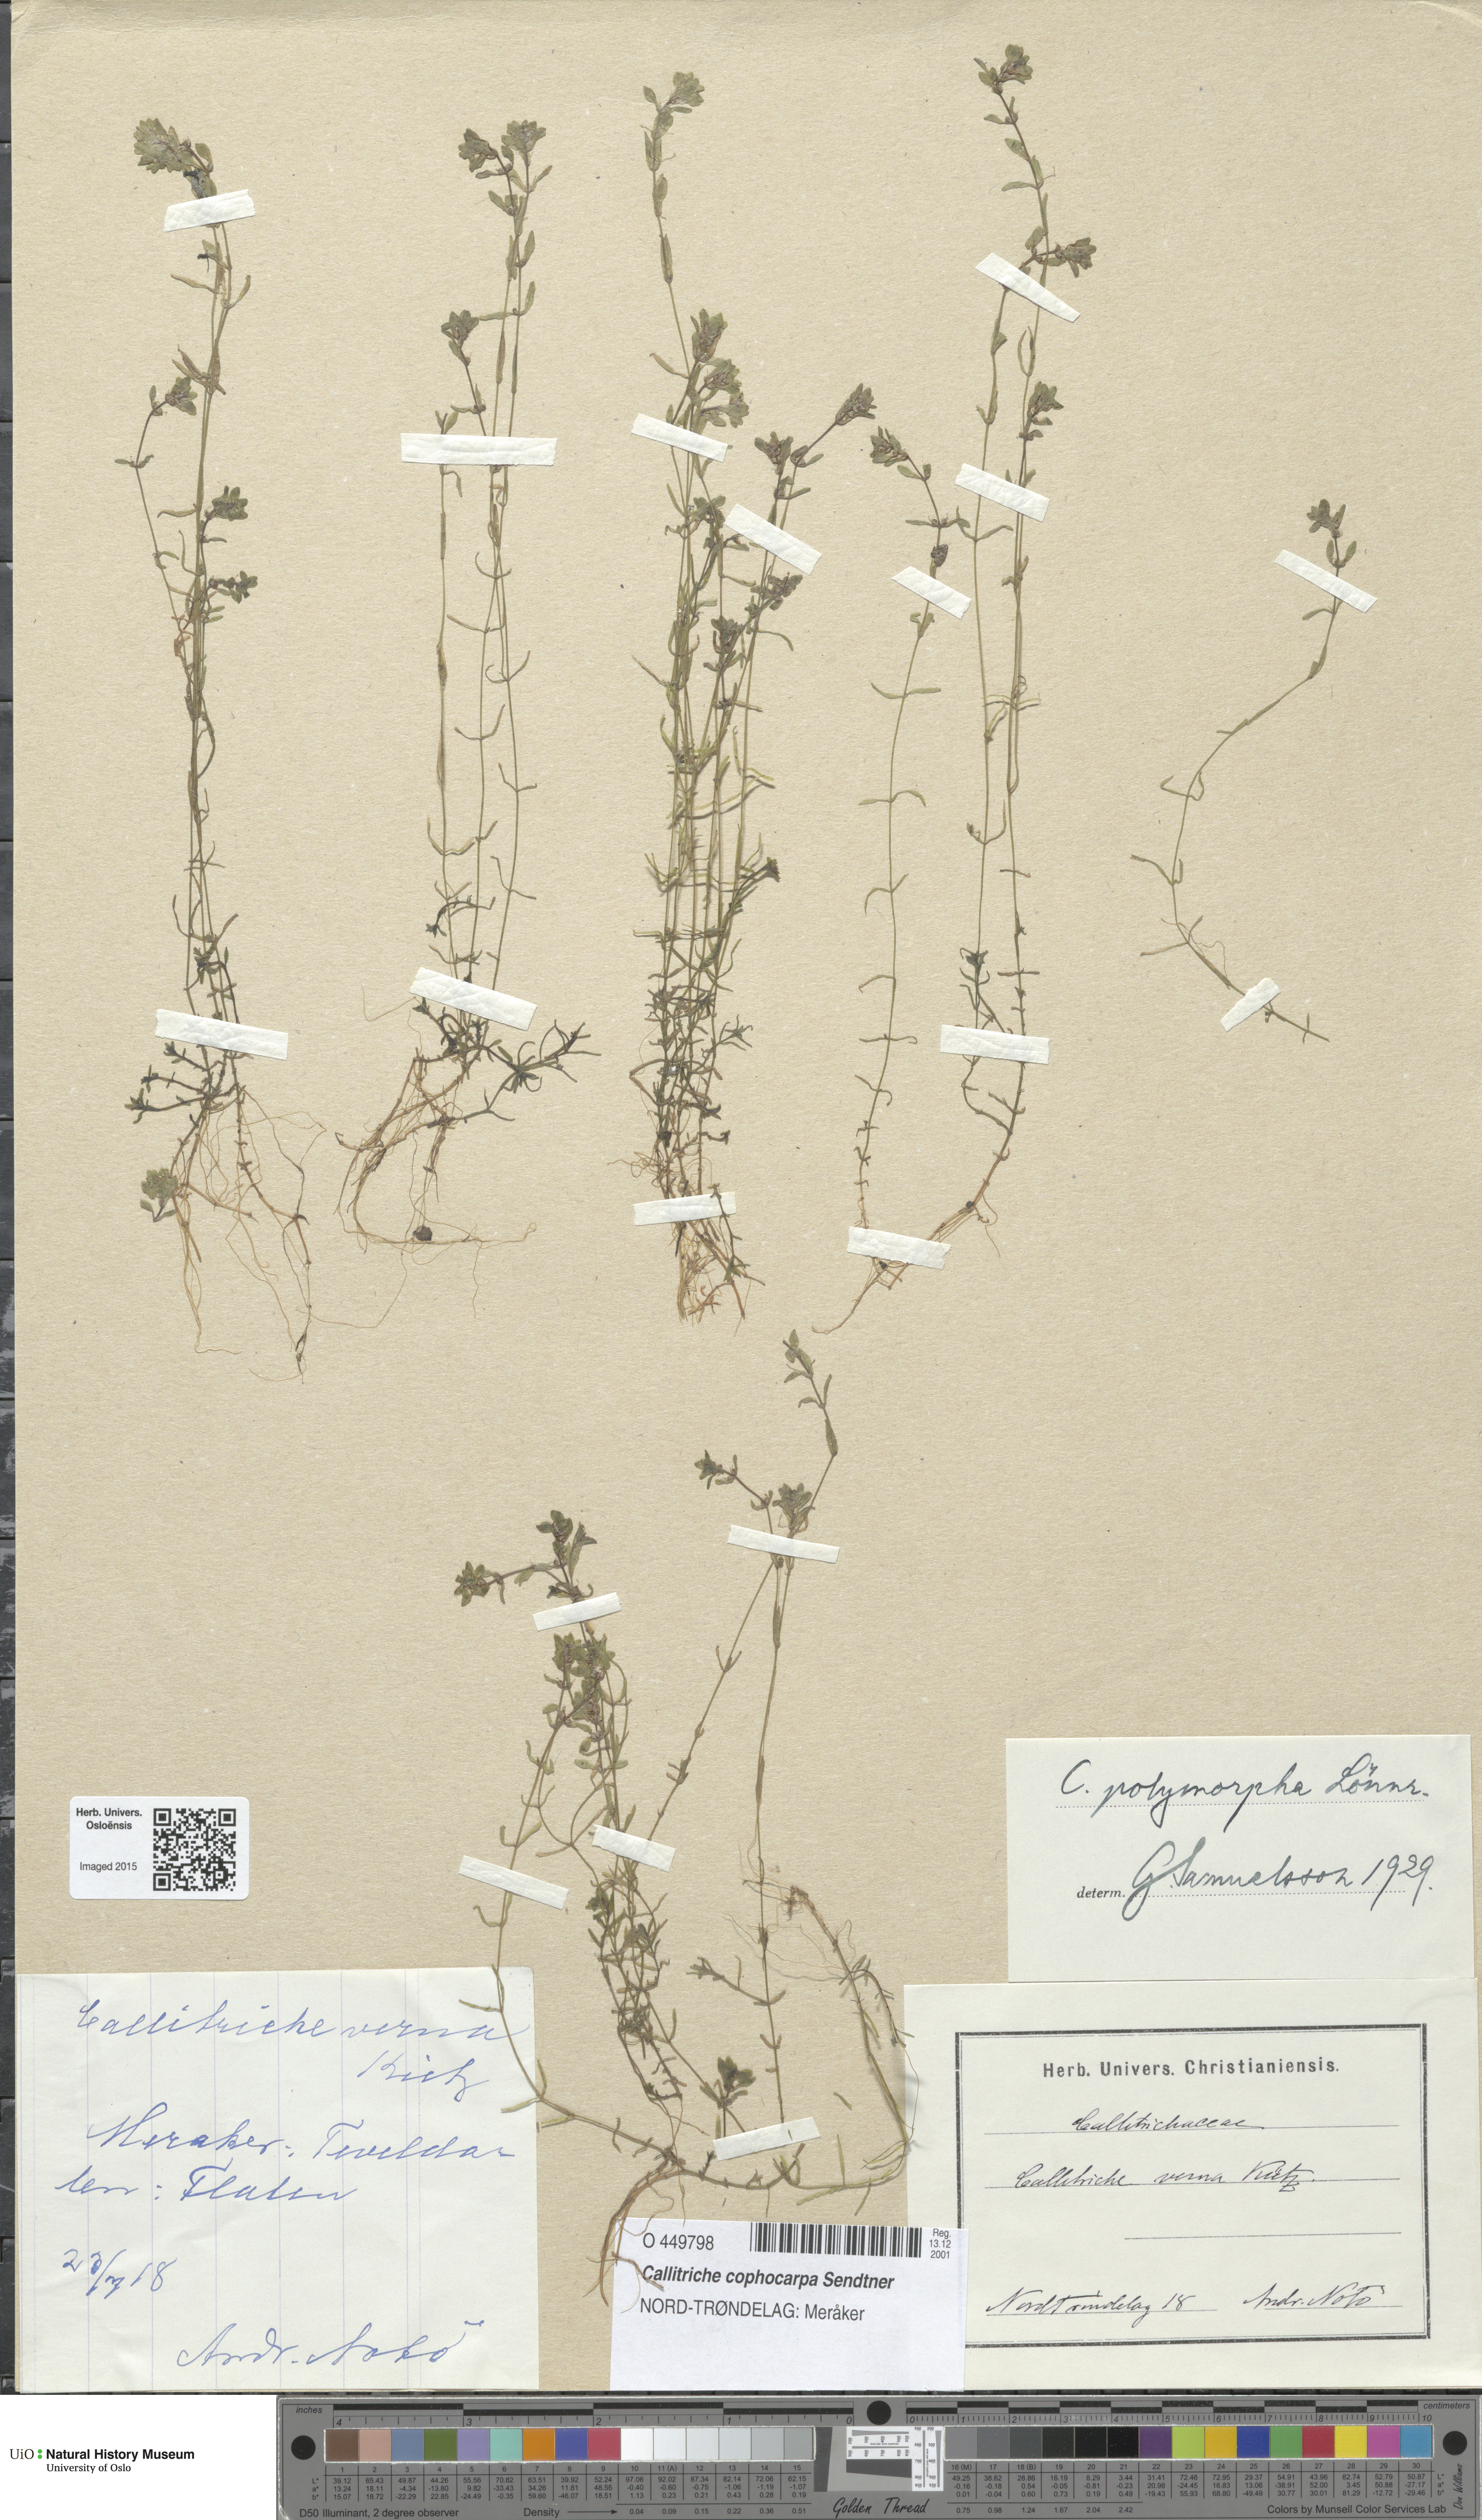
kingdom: Plantae
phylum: Tracheophyta
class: Magnoliopsida
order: Lamiales
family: Plantaginaceae
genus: Callitriche
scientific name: Callitriche cophocarpa
